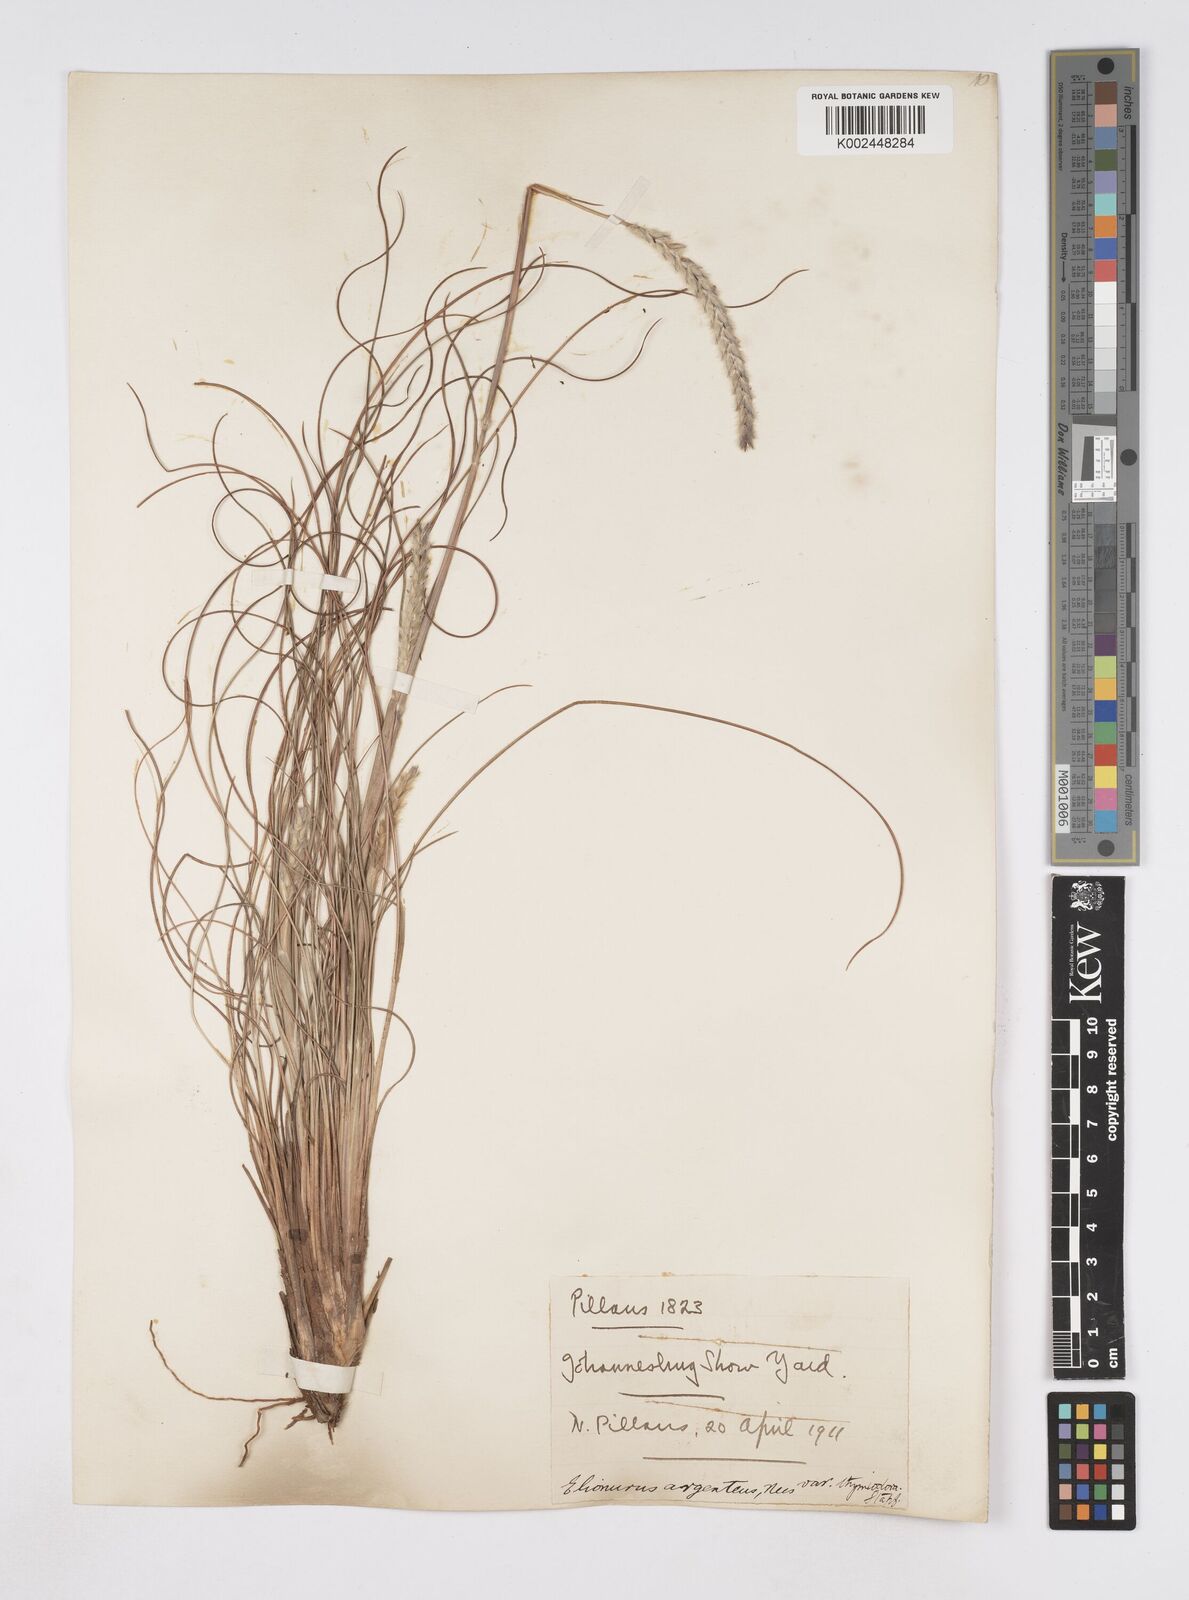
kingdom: Plantae
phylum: Tracheophyta
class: Liliopsida
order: Poales
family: Poaceae
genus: Elionurus
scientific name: Elionurus muticus
